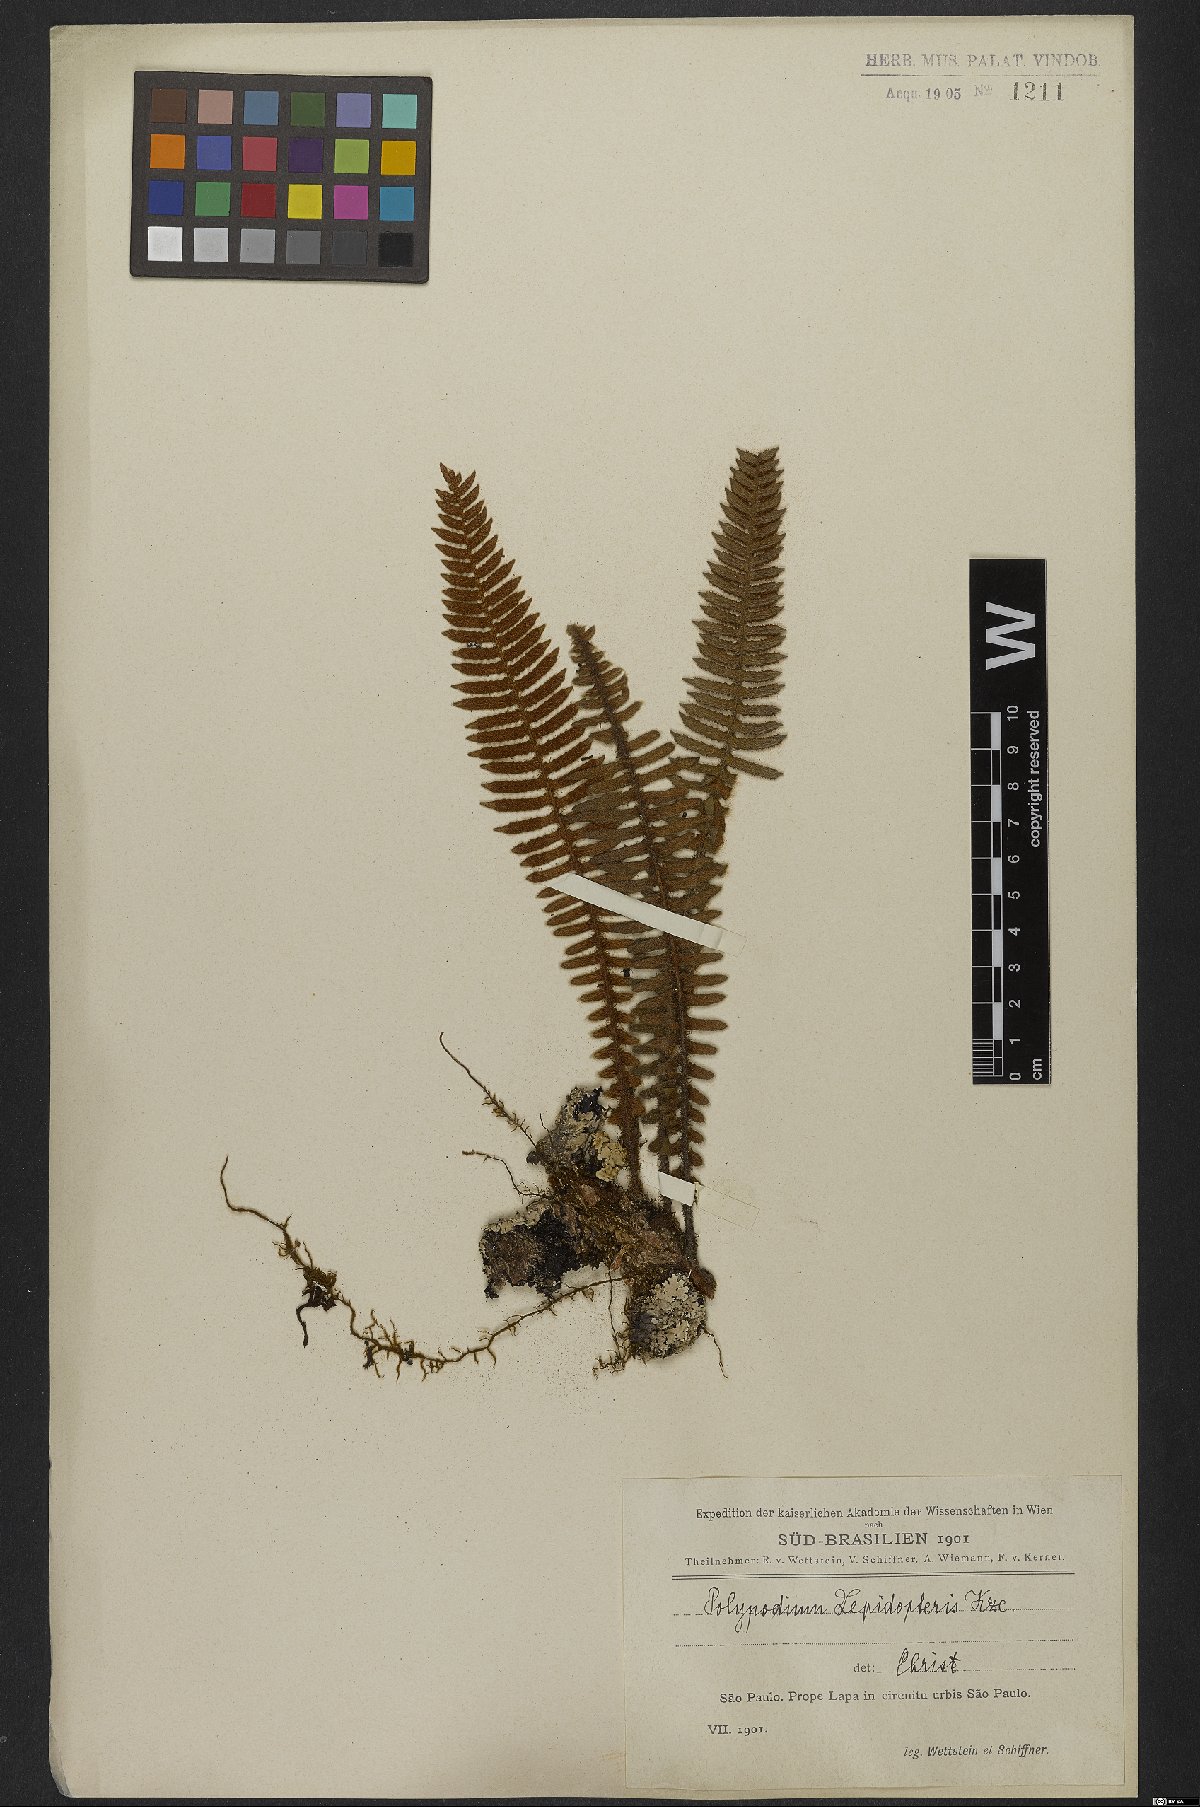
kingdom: Plantae
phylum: Tracheophyta
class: Polypodiopsida
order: Polypodiales
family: Polypodiaceae
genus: Pleopeltis
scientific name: Pleopeltis lepidopteris
